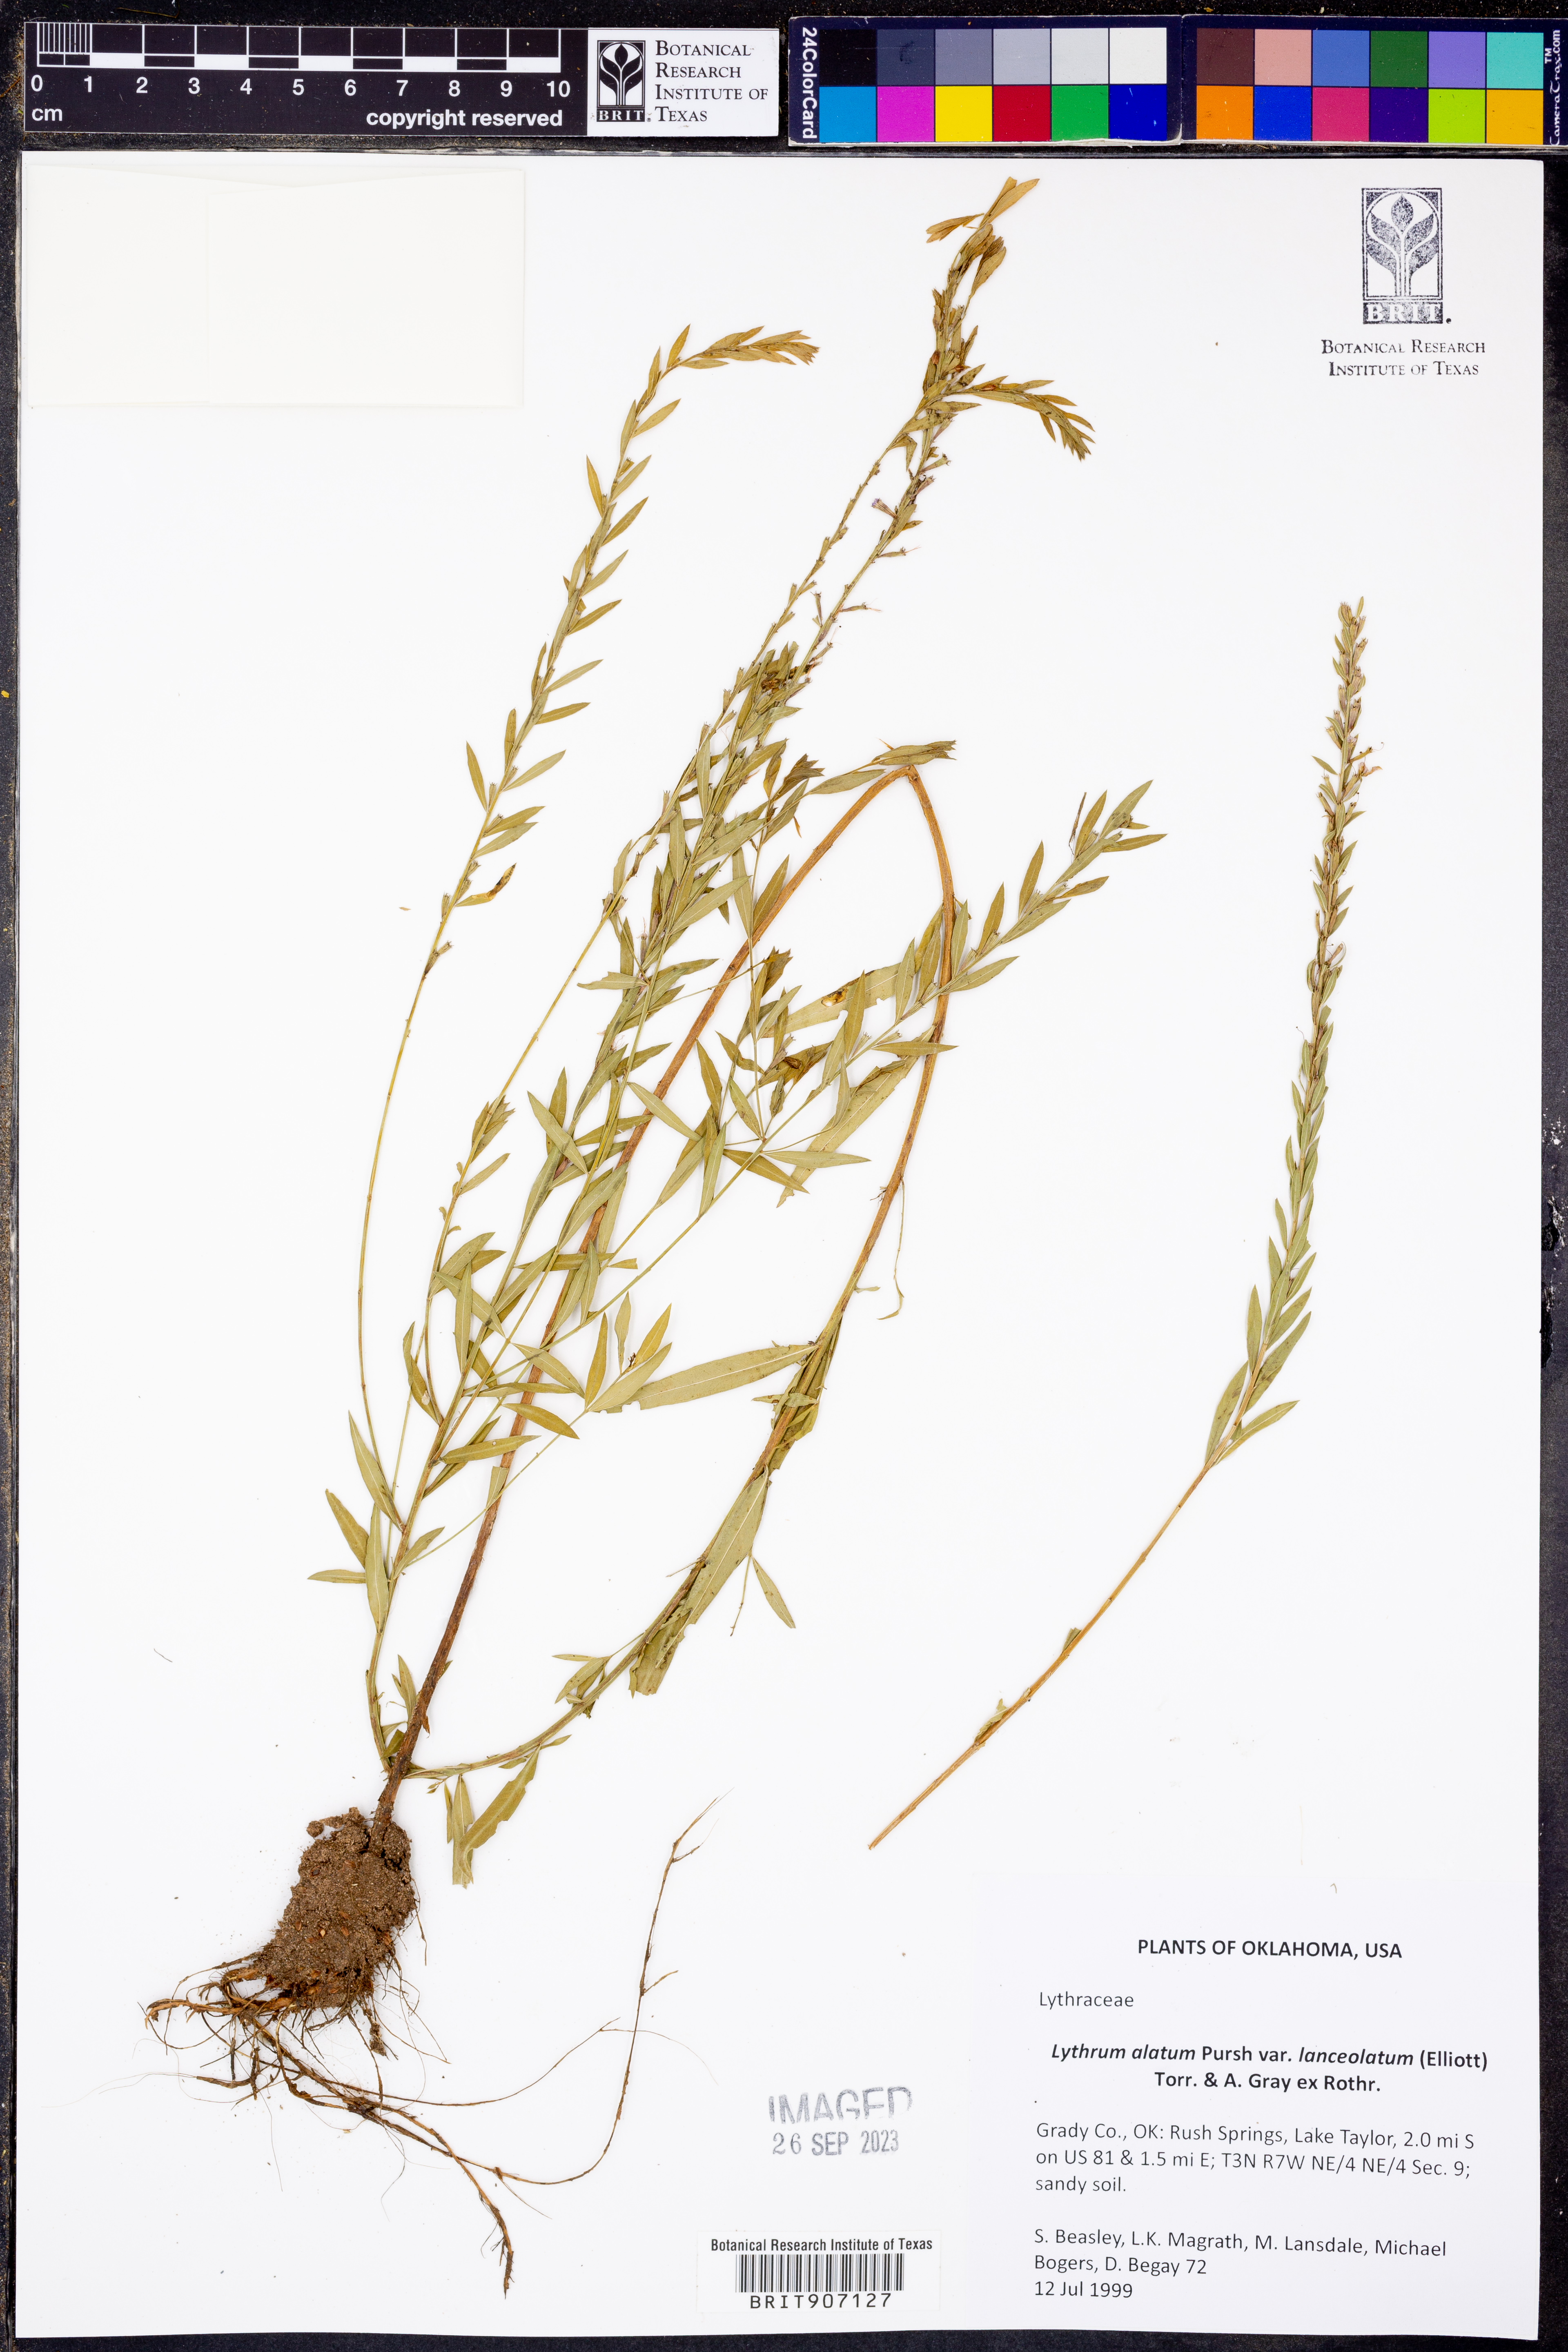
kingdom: Plantae
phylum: Tracheophyta
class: Magnoliopsida
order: Myrtales
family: Lythraceae
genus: Lythrum
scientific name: Lythrum alatum
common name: Winged loosestrife
